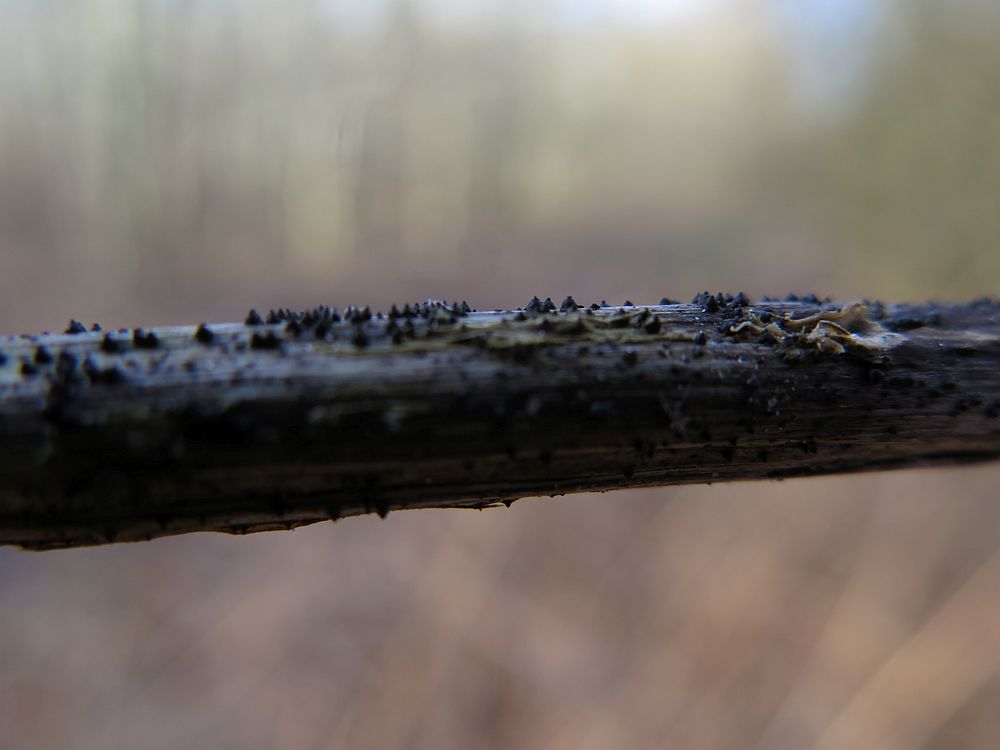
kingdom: Fungi
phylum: Ascomycota
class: Dothideomycetes
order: Pleosporales
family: Leptosphaeriaceae
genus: Leptosphaeria
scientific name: Leptosphaeria acuta
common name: spids kulkegle
